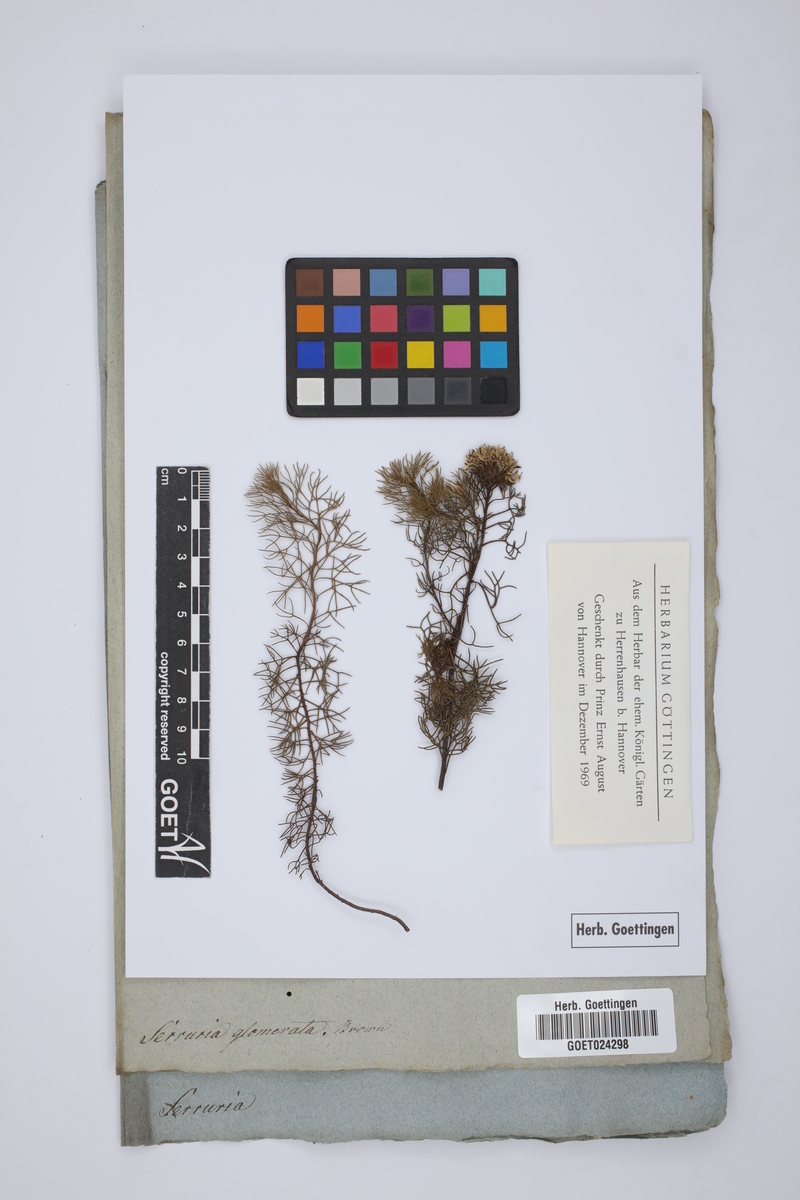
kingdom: Plantae
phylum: Tracheophyta
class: Magnoliopsida
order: Proteales
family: Proteaceae
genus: Serruria
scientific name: Serruria glomerata
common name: Cluster spiderhead
